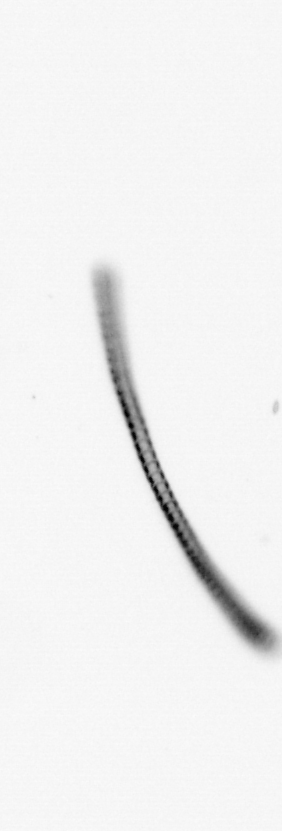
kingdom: Chromista
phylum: Ochrophyta
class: Bacillariophyceae
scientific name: Bacillariophyceae
